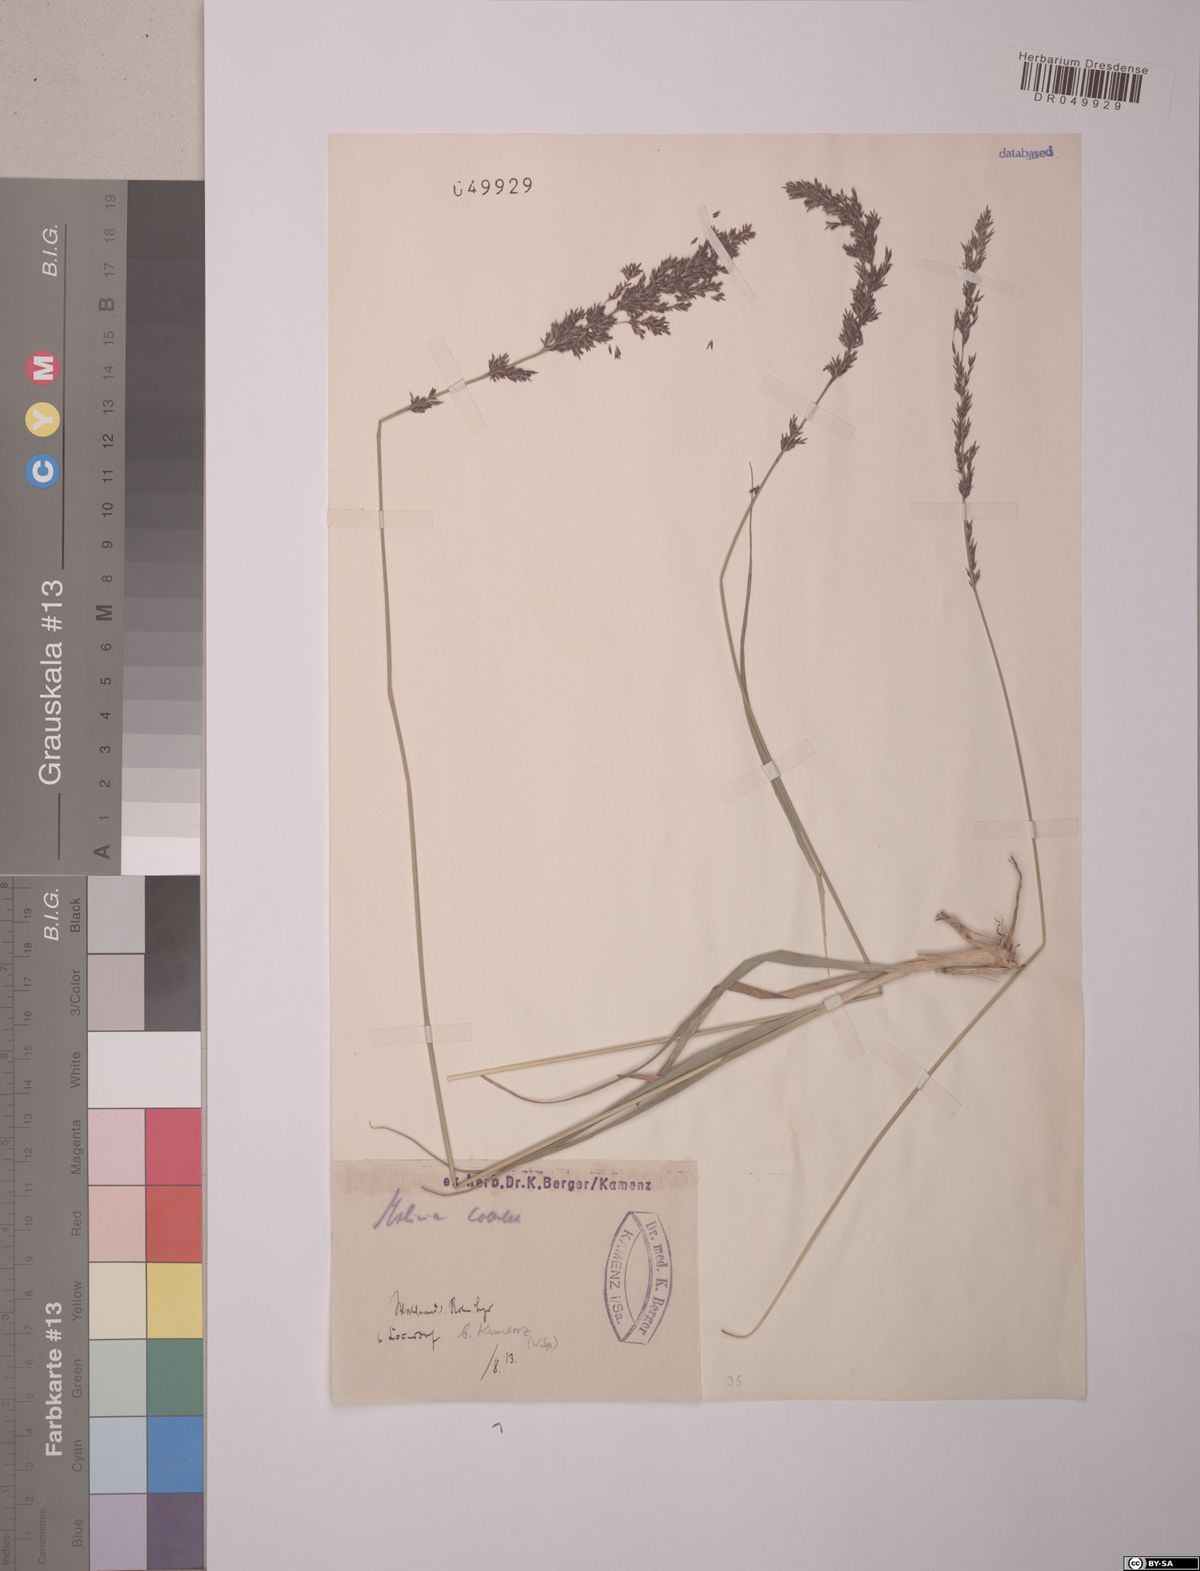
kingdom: Plantae
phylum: Tracheophyta
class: Liliopsida
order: Poales
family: Poaceae
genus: Molinia
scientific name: Molinia caerulea
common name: Purple moor-grass
